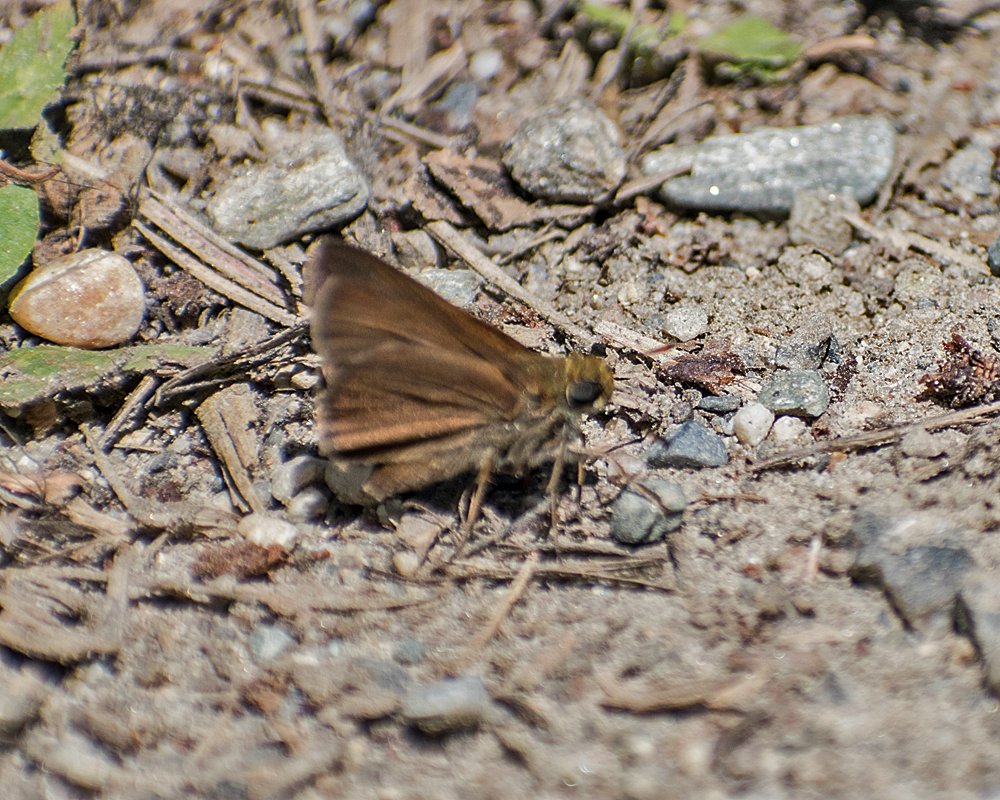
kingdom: Animalia
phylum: Arthropoda
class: Insecta
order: Lepidoptera
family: Hesperiidae
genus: Euphyes
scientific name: Euphyes vestris
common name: Dun Skipper
